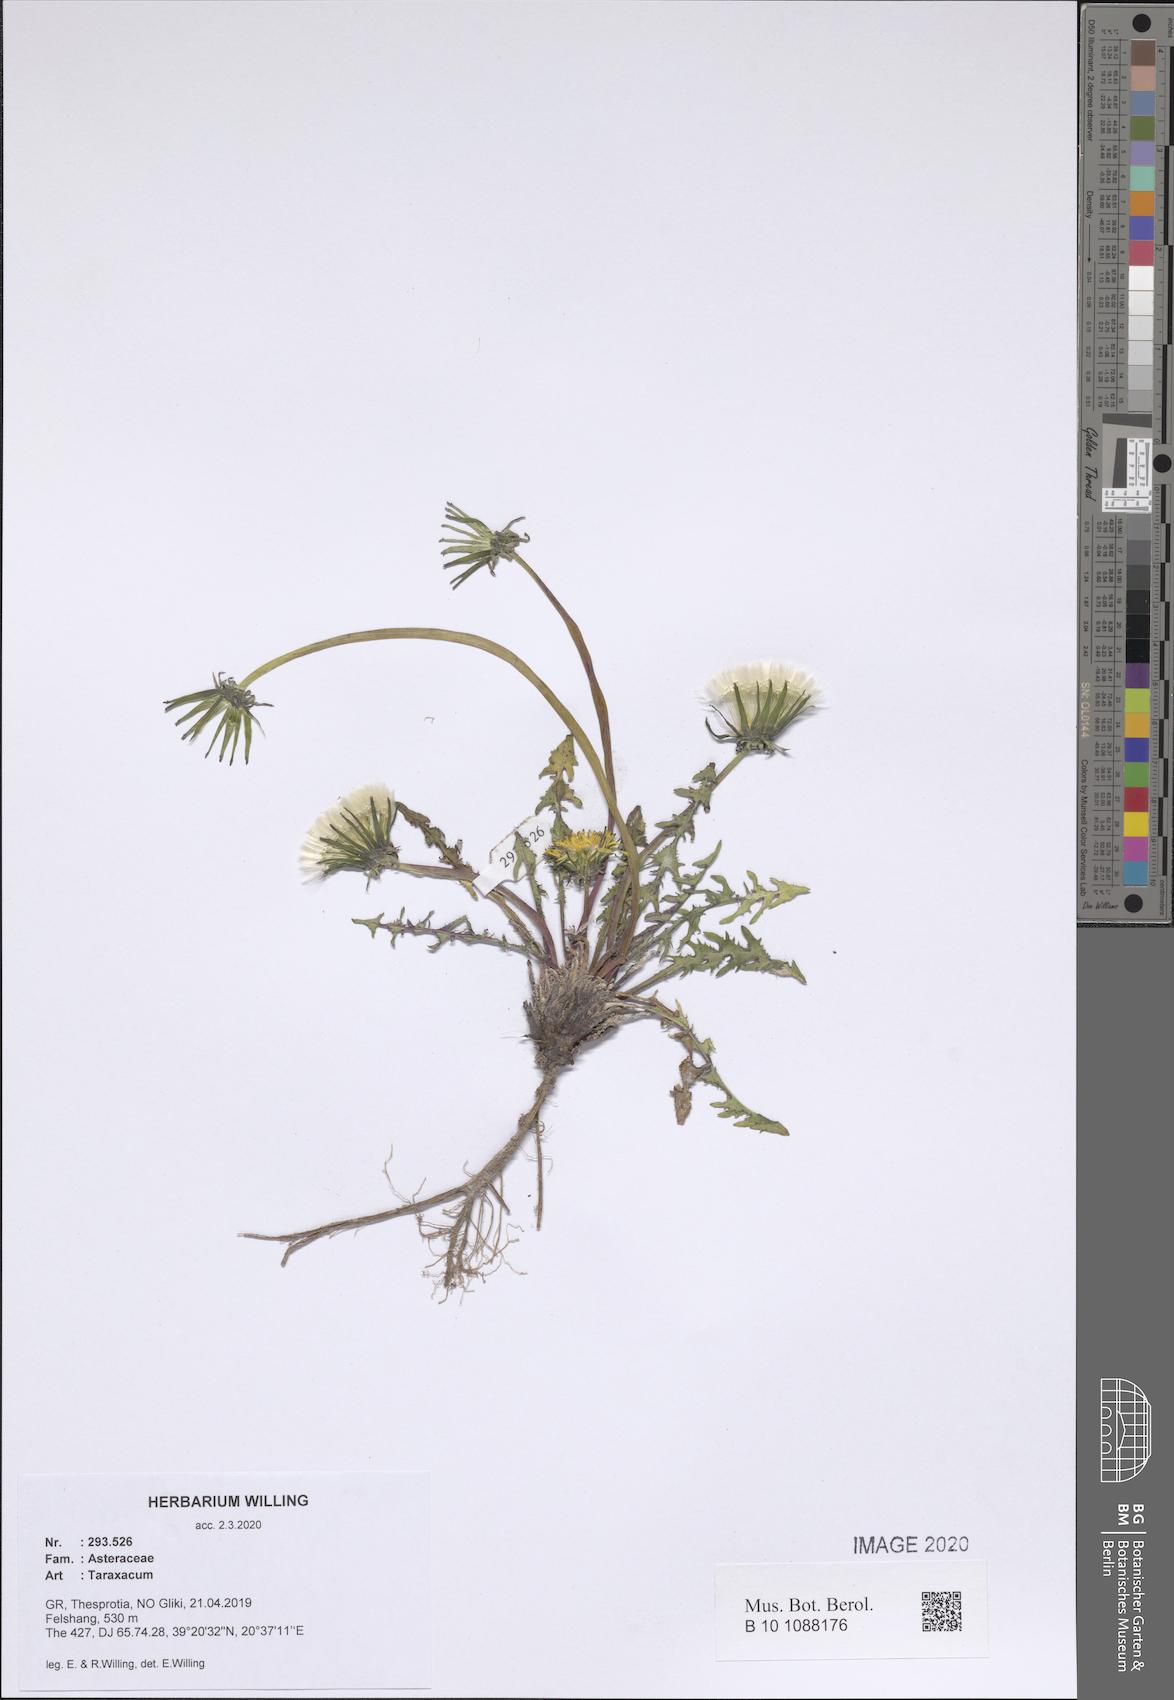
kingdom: Plantae
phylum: Tracheophyta
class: Magnoliopsida
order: Asterales
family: Asteraceae
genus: Taraxacum
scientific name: Taraxacum
